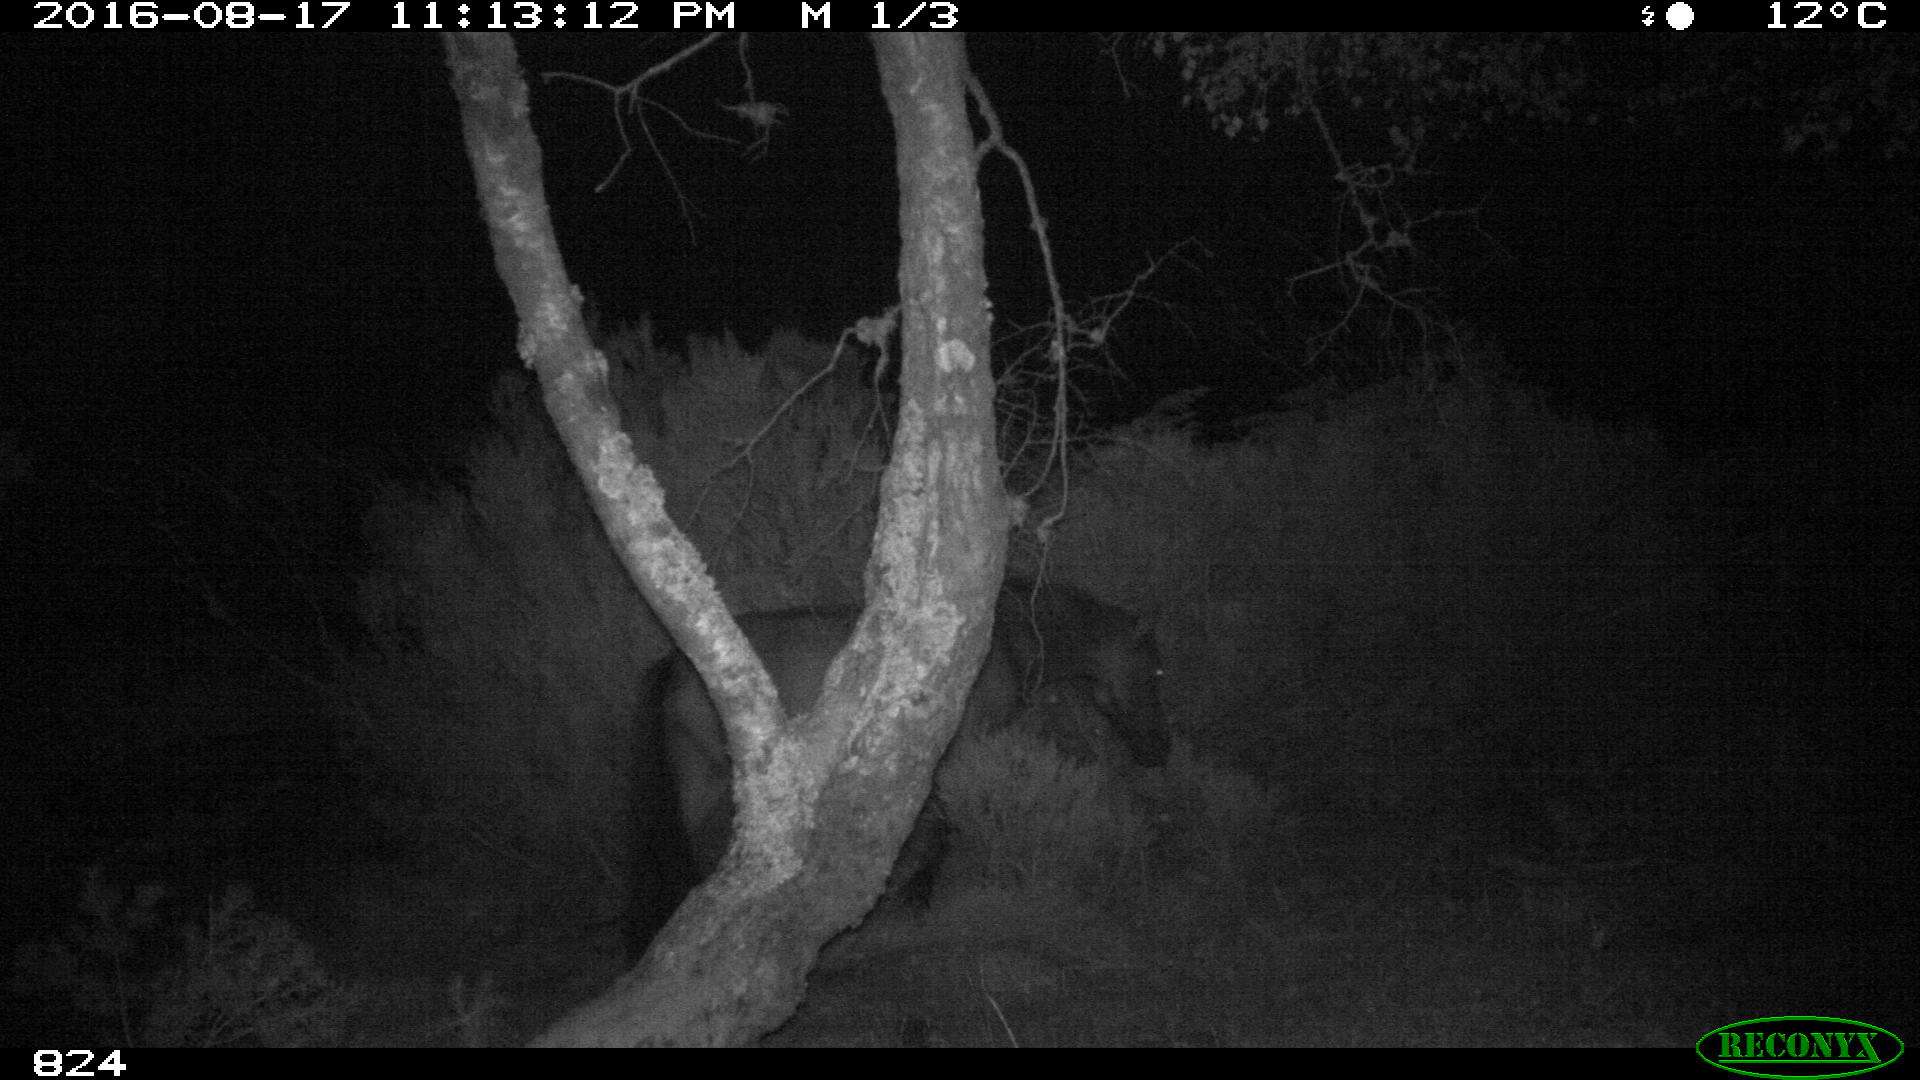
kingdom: Animalia
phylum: Chordata
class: Mammalia
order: Perissodactyla
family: Equidae
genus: Equus
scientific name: Equus caballus
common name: Horse
